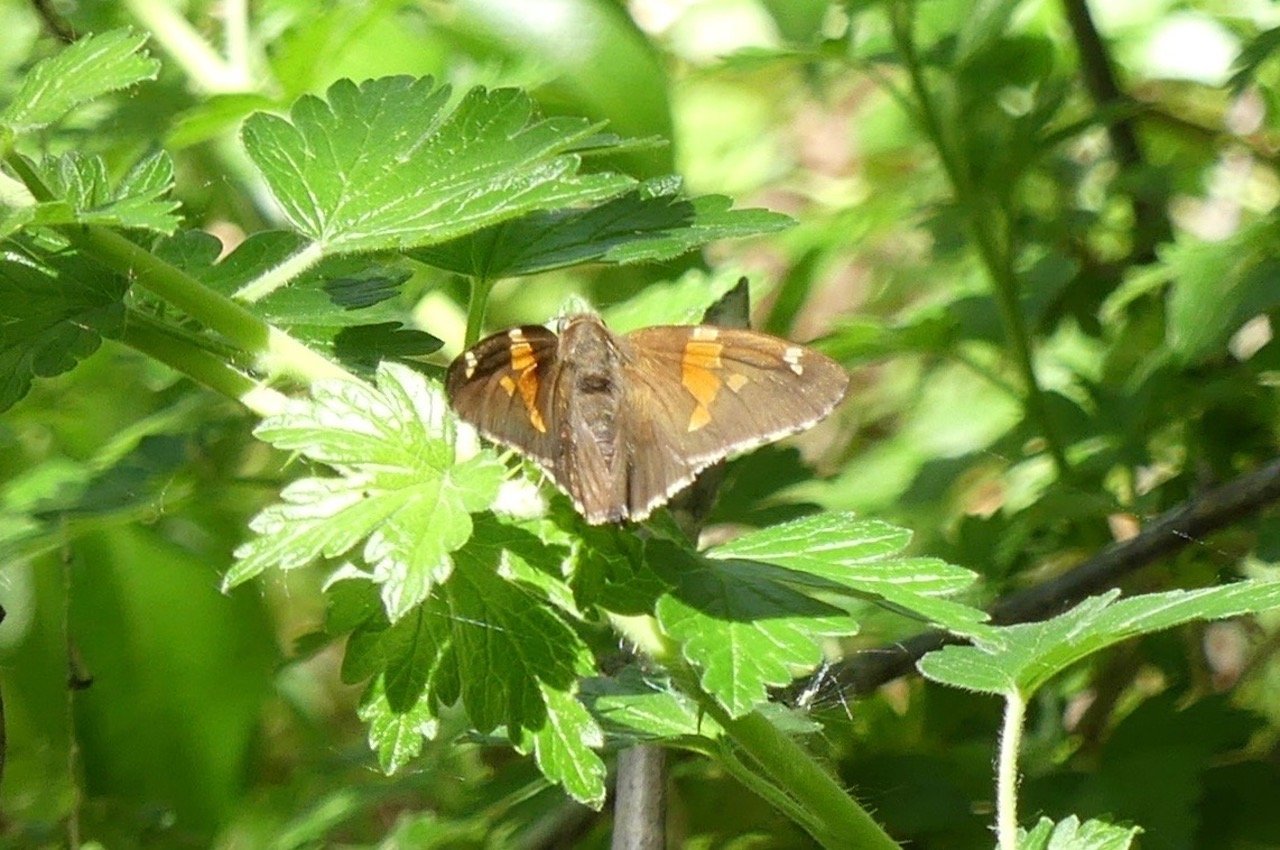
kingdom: Animalia
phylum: Arthropoda
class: Insecta
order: Lepidoptera
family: Hesperiidae
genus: Epargyreus
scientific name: Epargyreus clarus
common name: Silver-spotted Skipper
